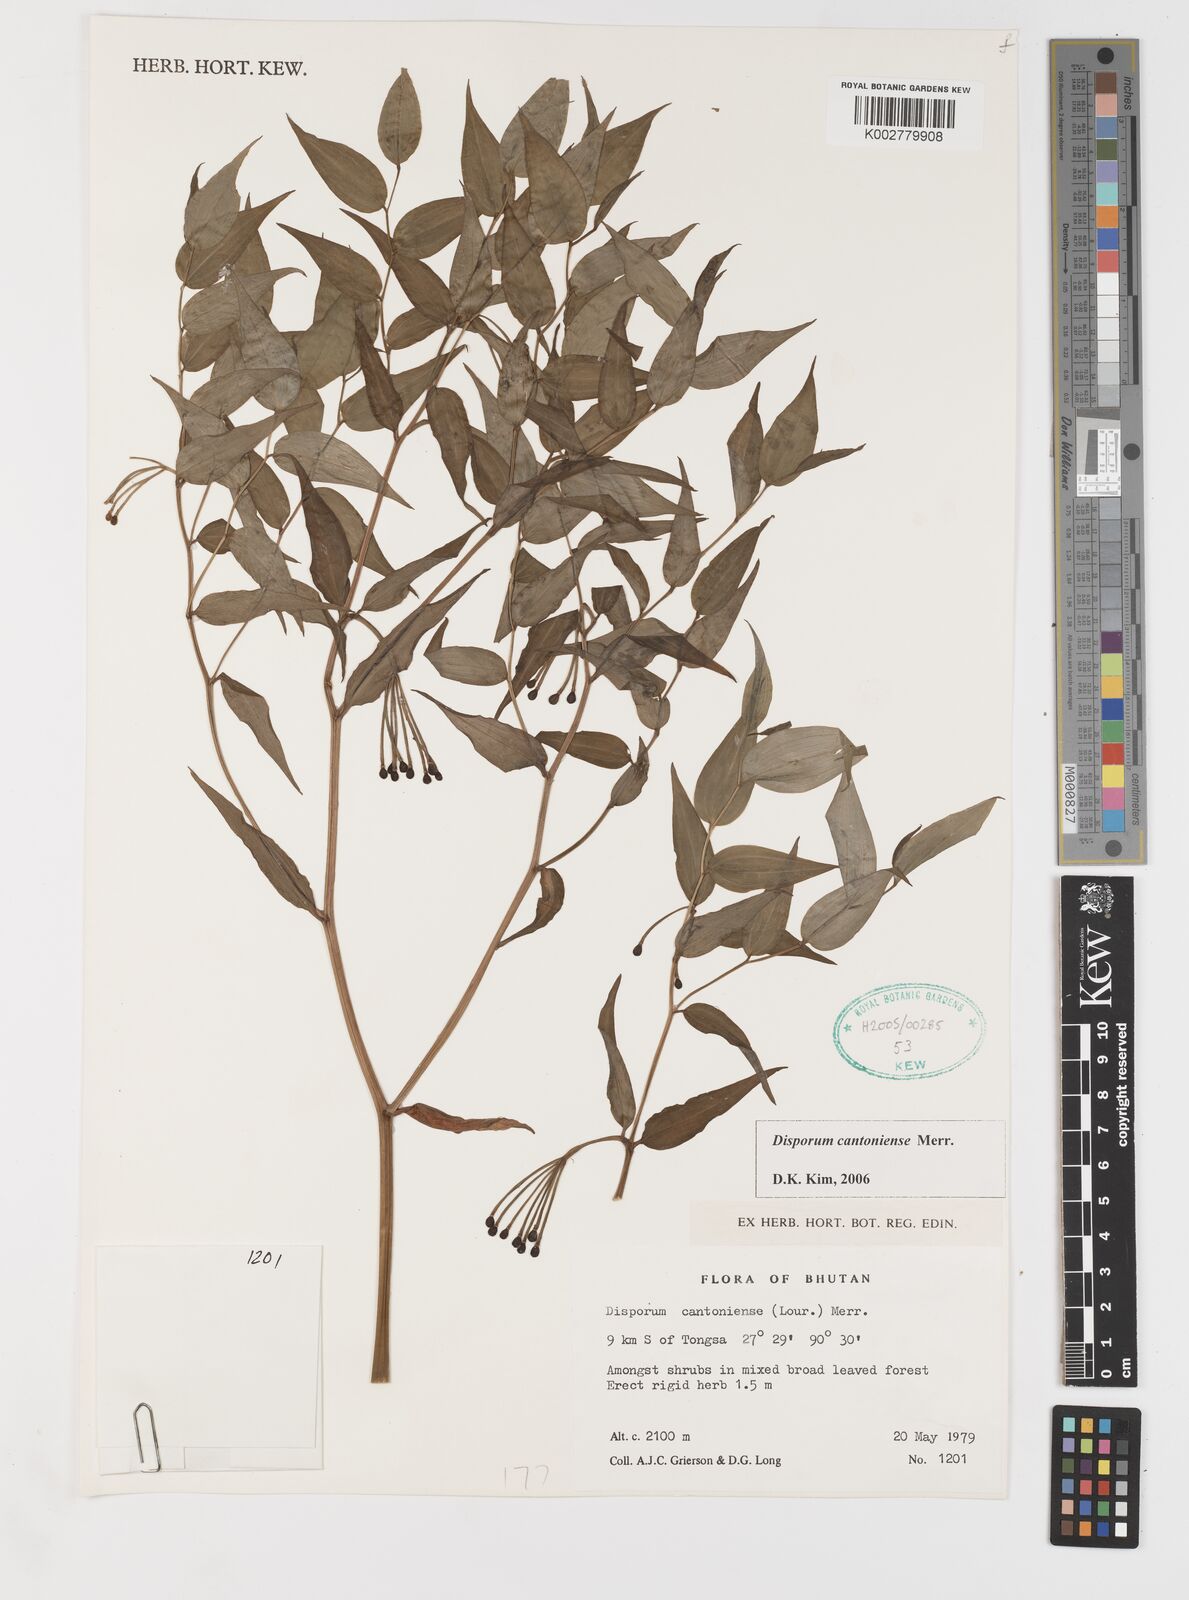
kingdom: Plantae
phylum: Tracheophyta
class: Liliopsida
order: Liliales
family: Colchicaceae
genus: Disporum
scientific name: Disporum cantoniense
